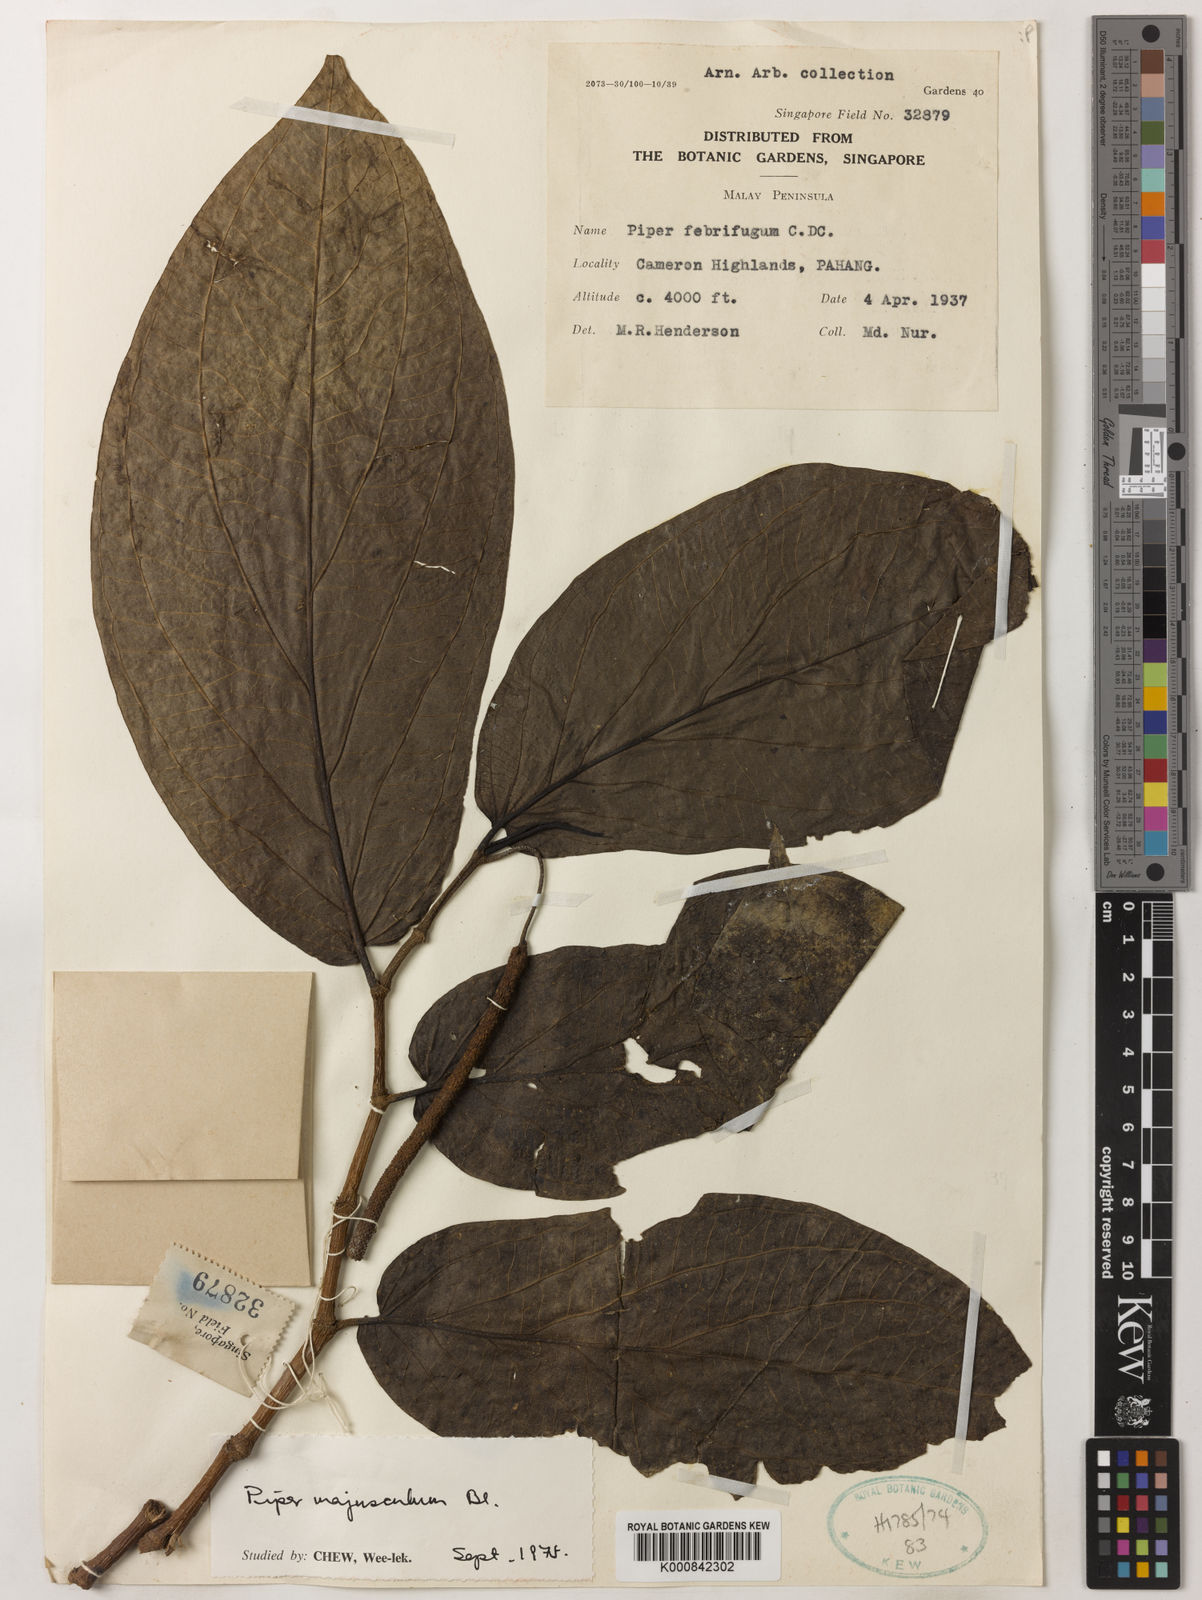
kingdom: Plantae
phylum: Tracheophyta
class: Magnoliopsida
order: Piperales
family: Piperaceae
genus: Piper
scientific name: Piper majusculum
